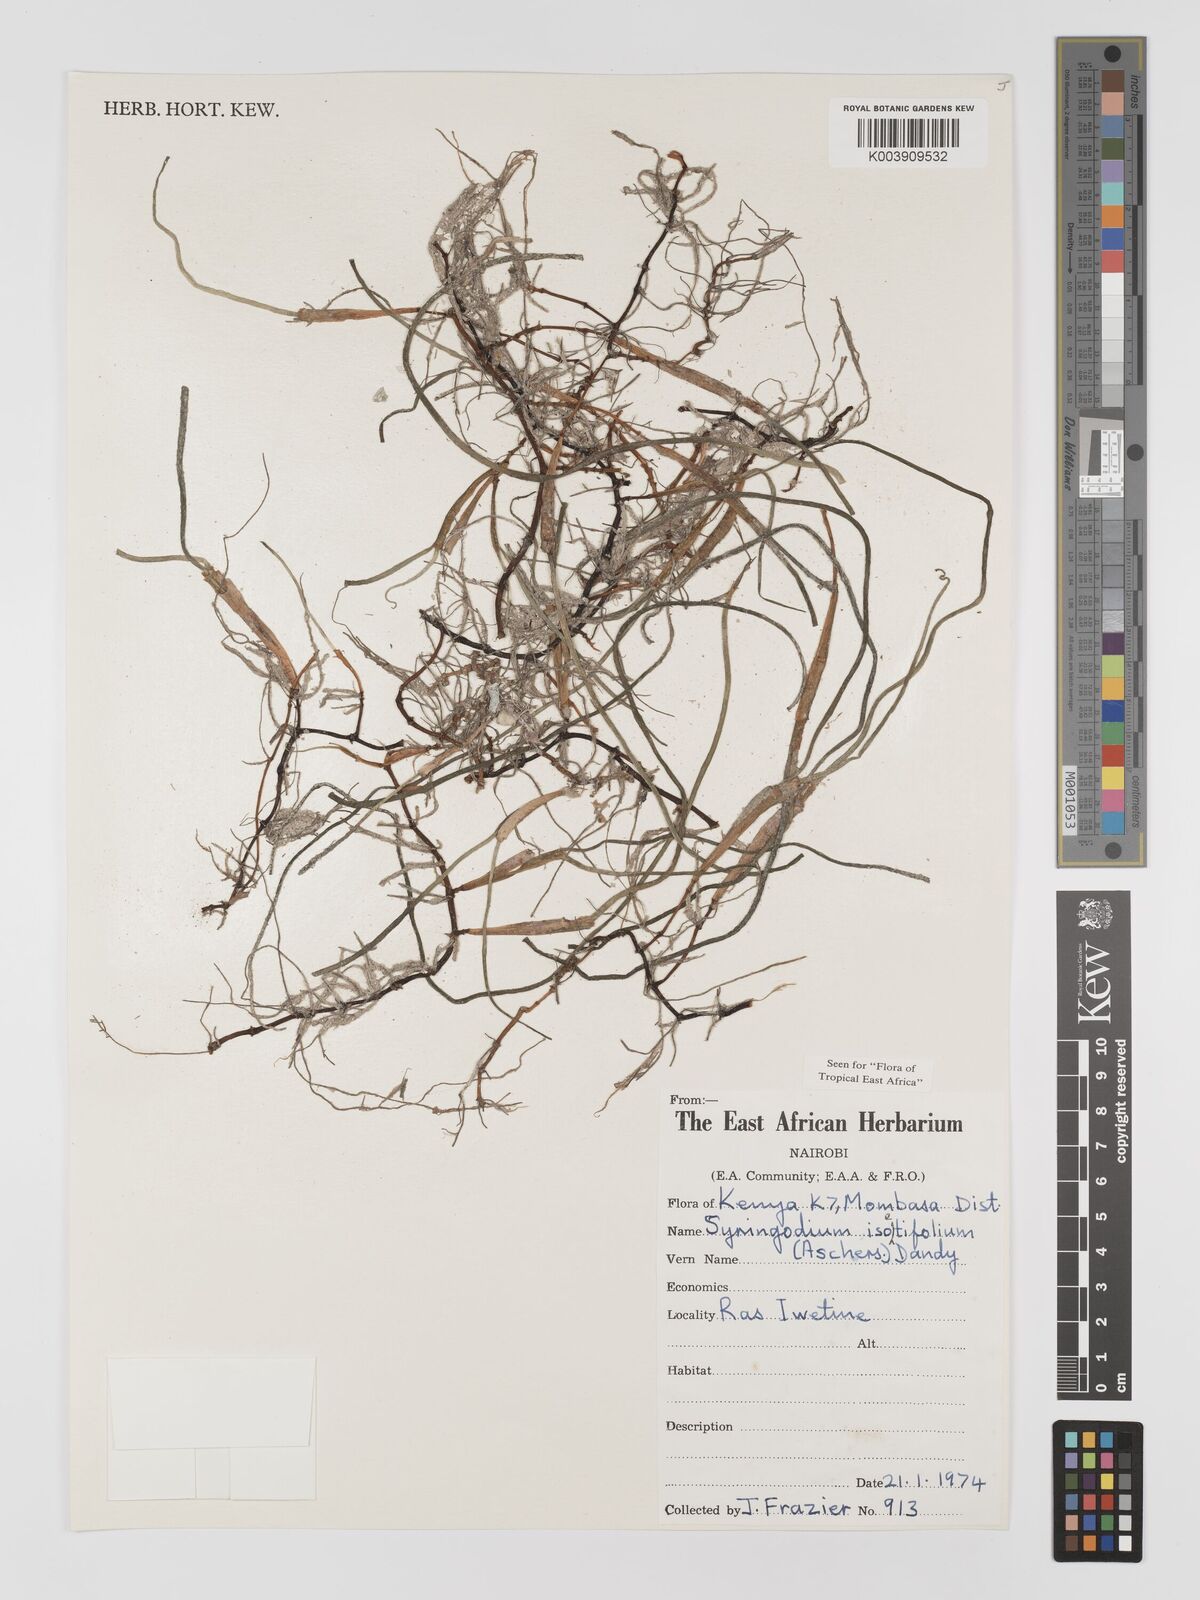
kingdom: Plantae
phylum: Tracheophyta
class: Liliopsida
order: Alismatales
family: Cymodoceaceae
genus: Syringodium
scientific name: Syringodium isoetifolium
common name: Species code: si
